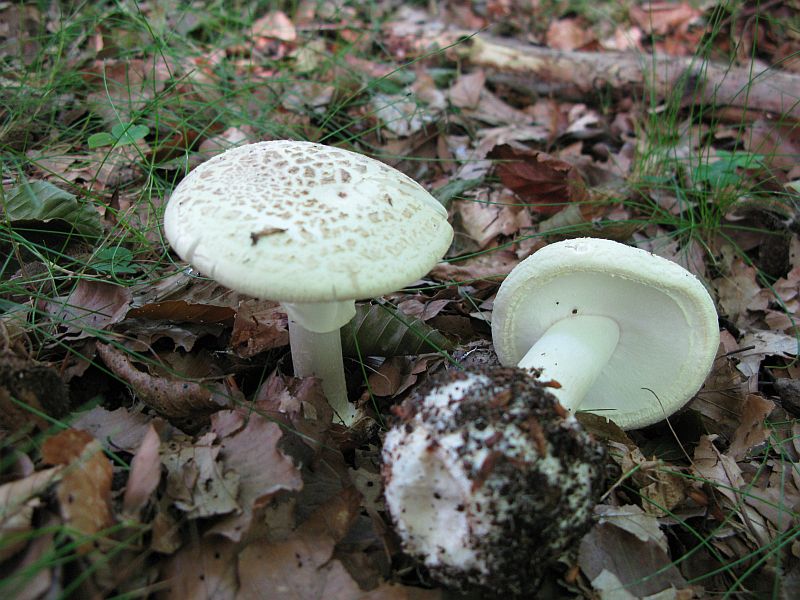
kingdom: Fungi
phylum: Basidiomycota
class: Agaricomycetes
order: Agaricales
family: Amanitaceae
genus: Amanita
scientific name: Amanita citrina
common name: kugleknoldet fluesvamp
